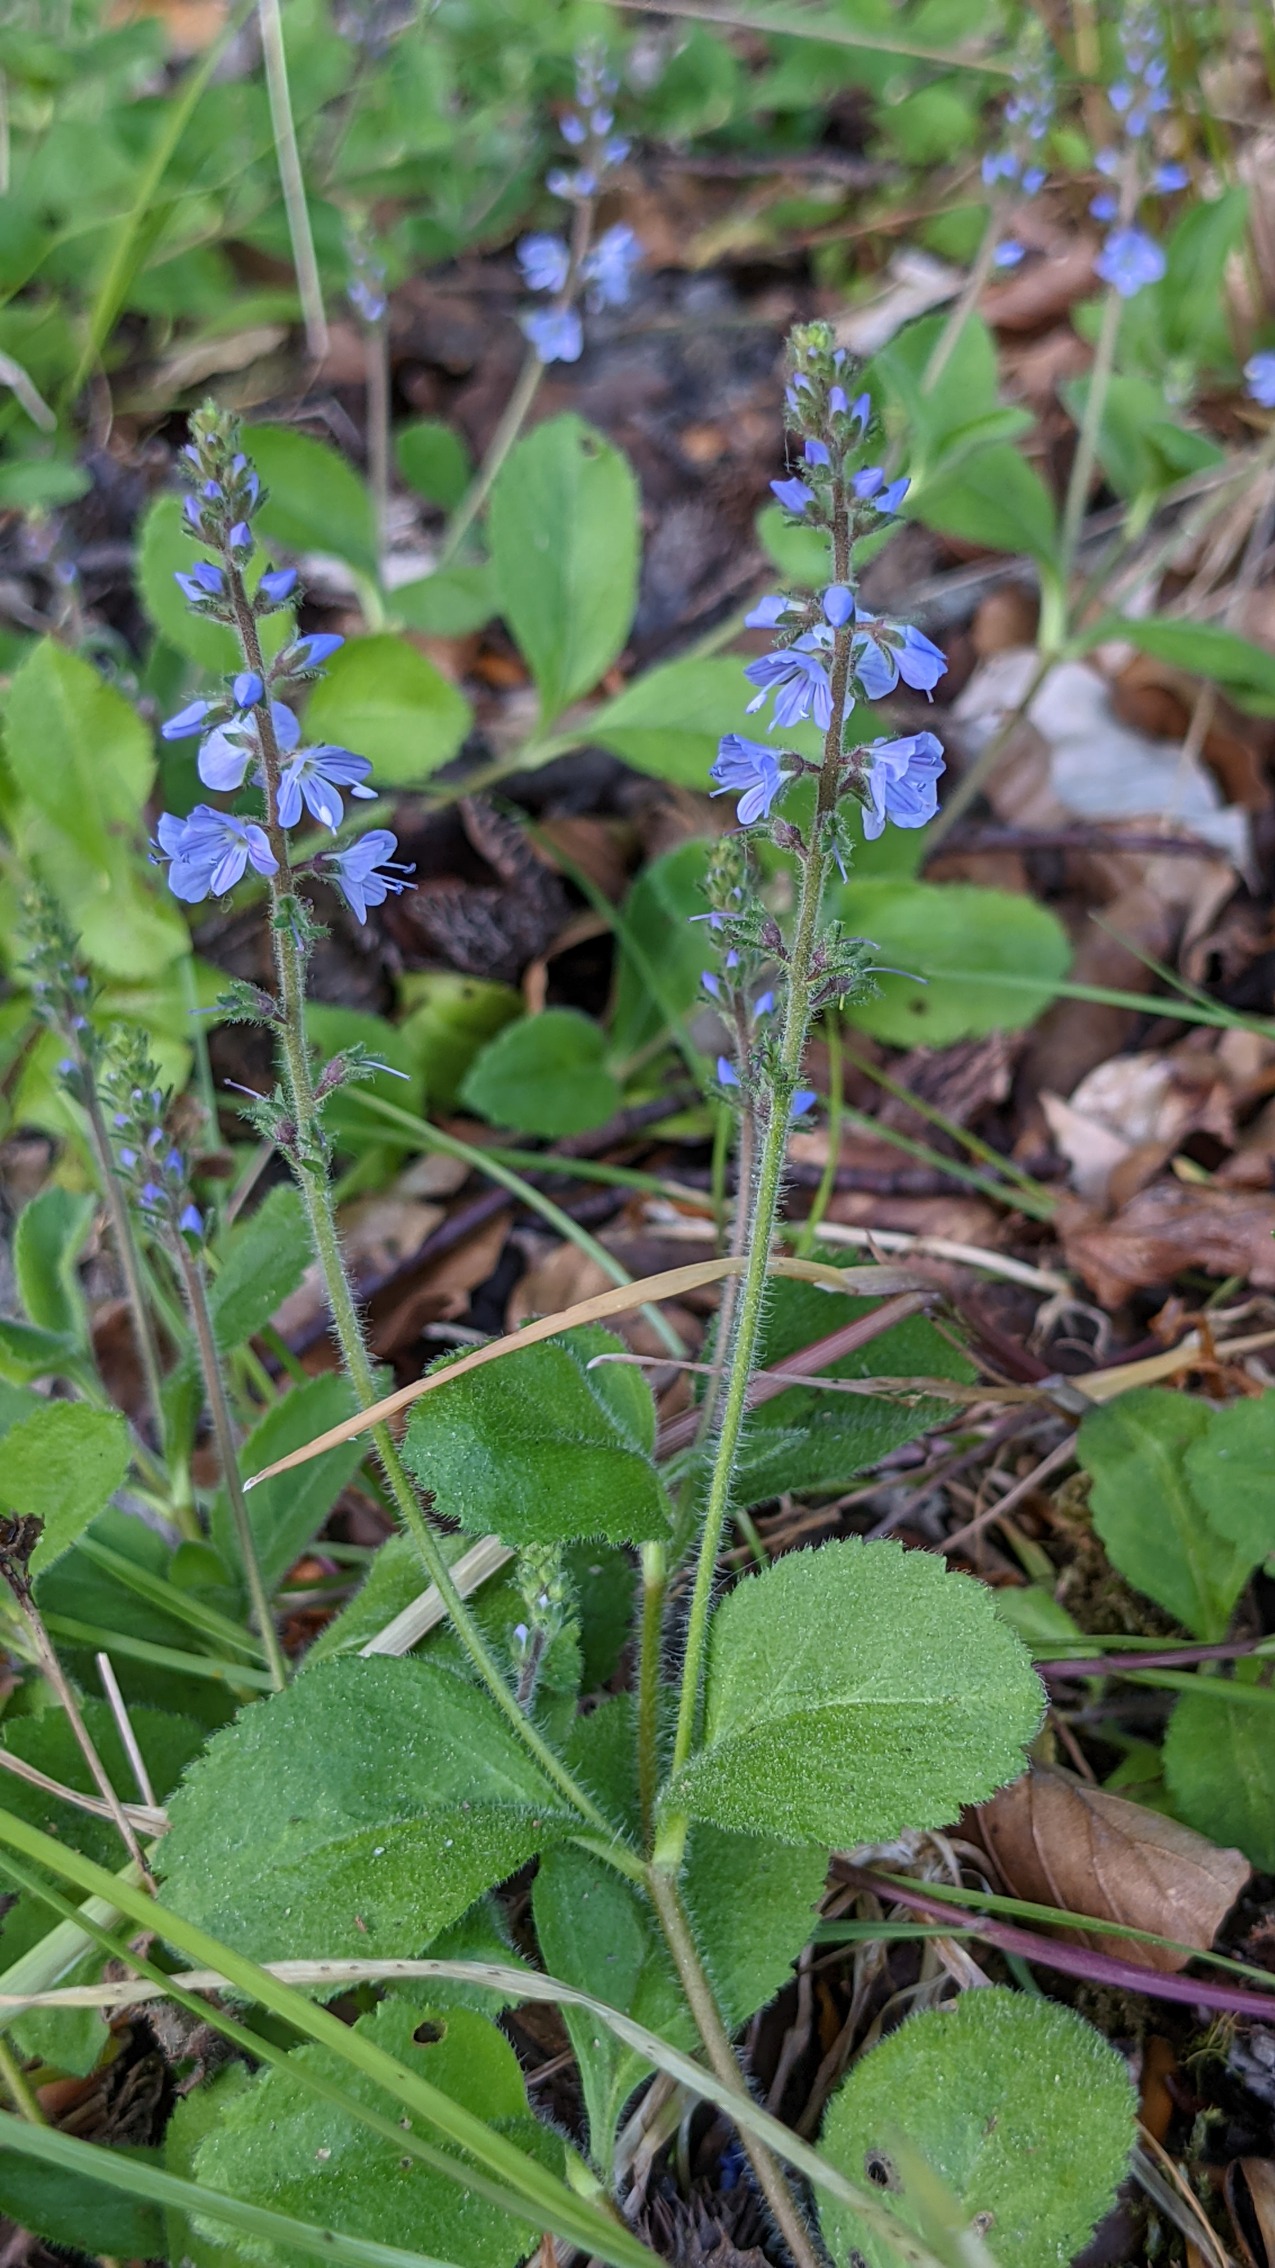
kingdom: Plantae
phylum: Tracheophyta
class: Magnoliopsida
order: Lamiales
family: Plantaginaceae
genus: Veronica
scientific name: Veronica officinalis
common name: Læge-ærenpris
